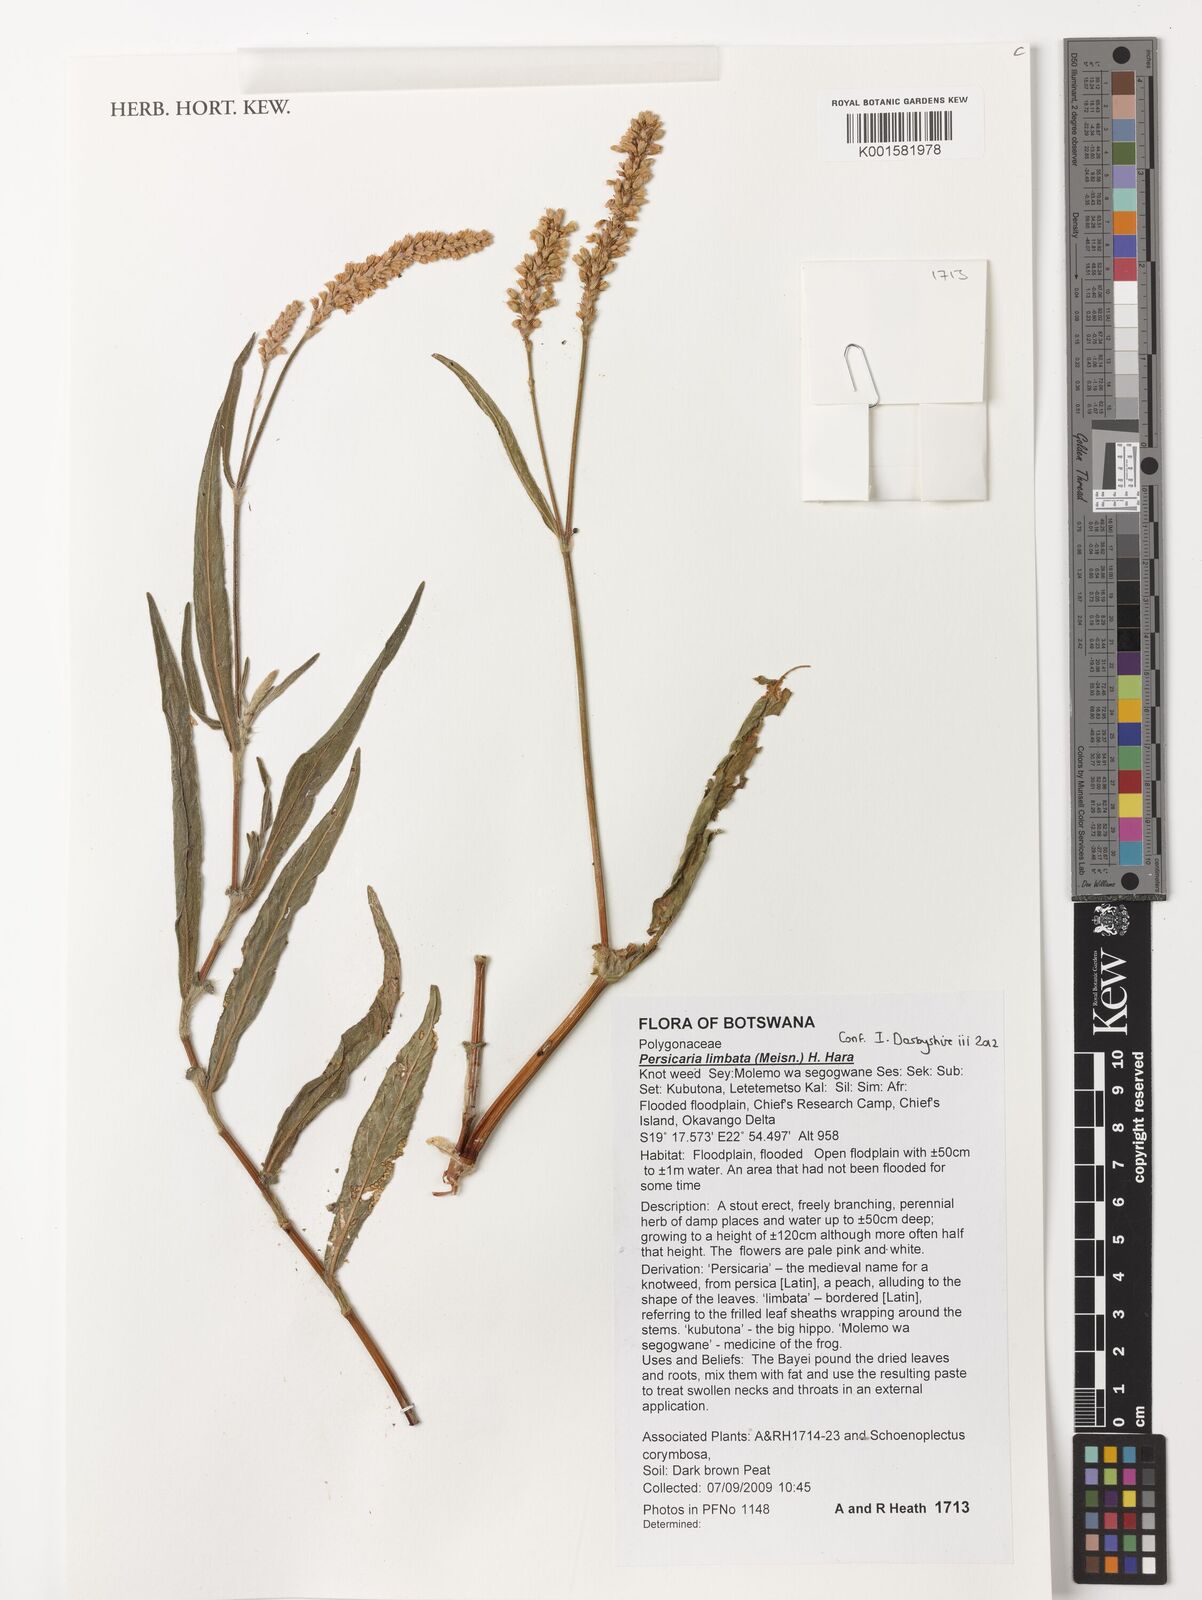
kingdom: Plantae
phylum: Tracheophyta
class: Magnoliopsida
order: Caryophyllales
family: Polygonaceae
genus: Persicaria
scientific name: Persicaria limbata
